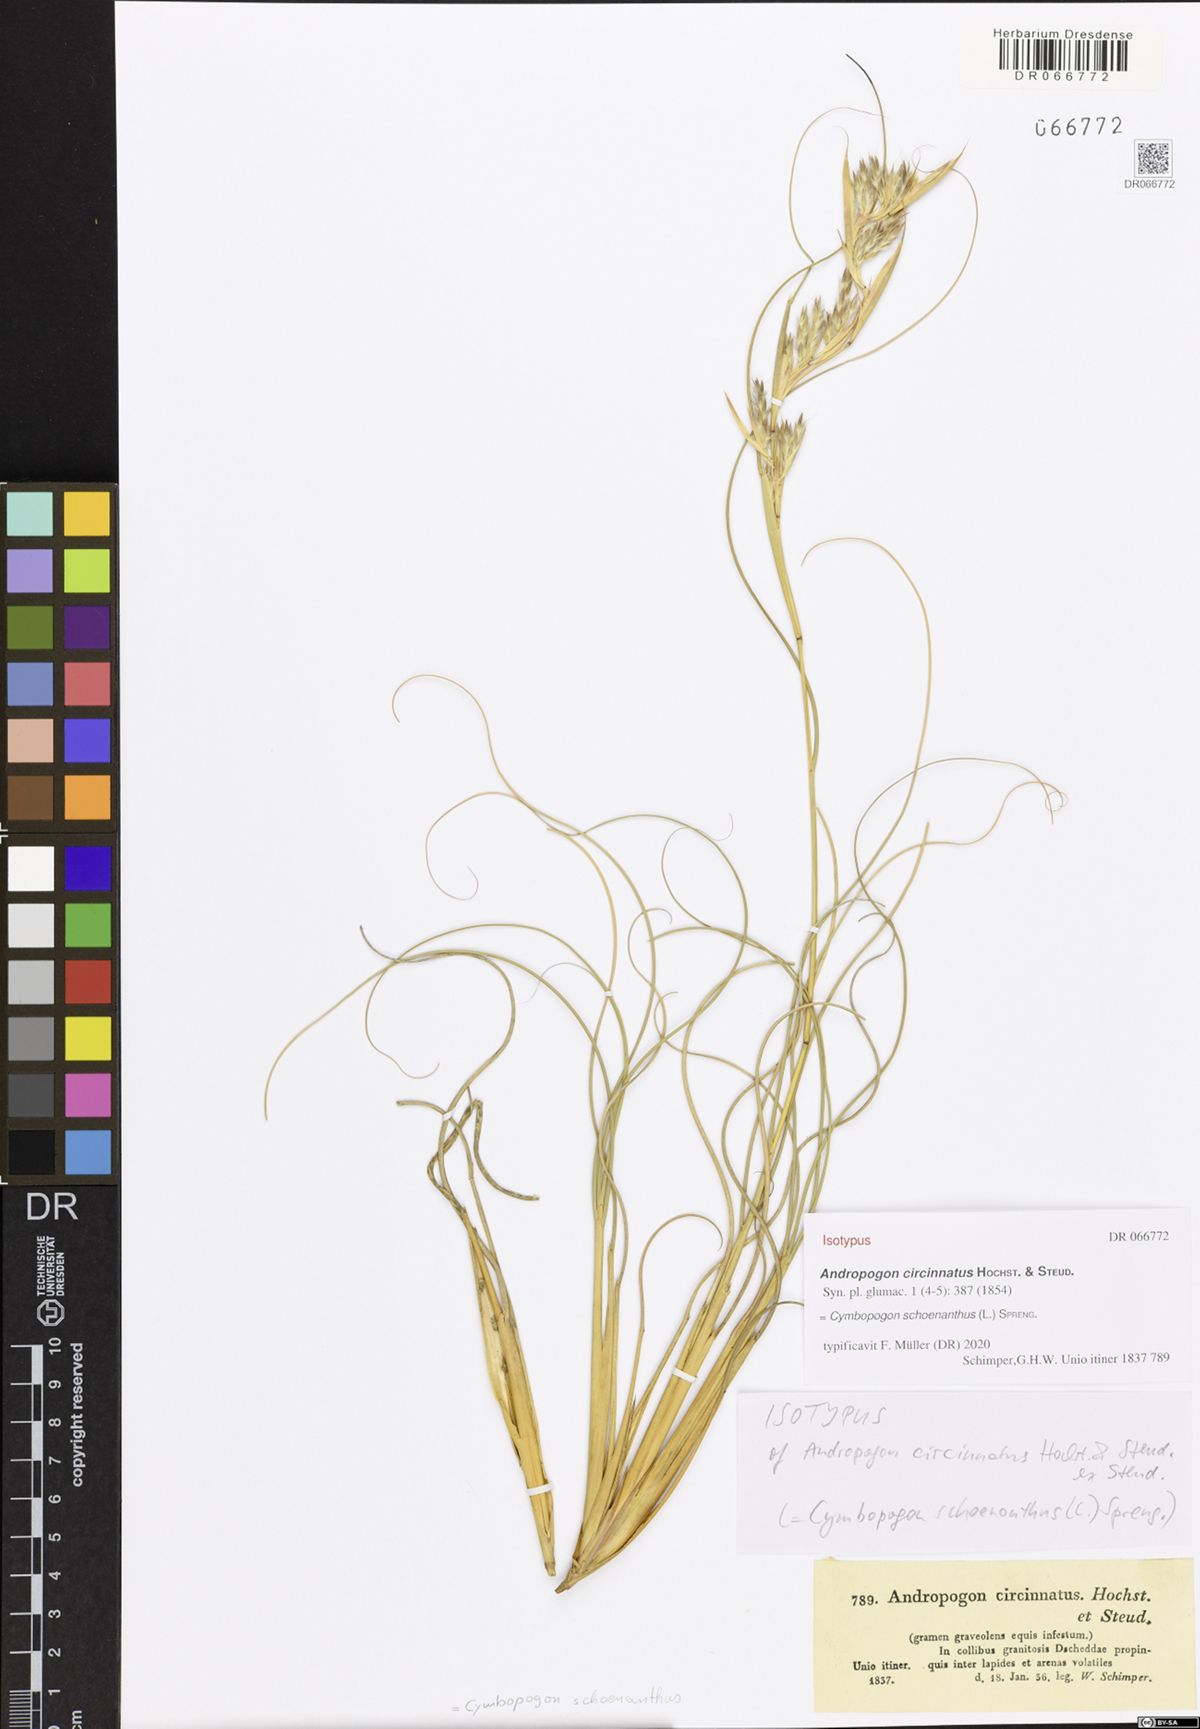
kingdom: Plantae
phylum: Tracheophyta
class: Liliopsida
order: Poales
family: Poaceae
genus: Cymbopogon
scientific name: Cymbopogon schoenanthus
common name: Geranium grass
